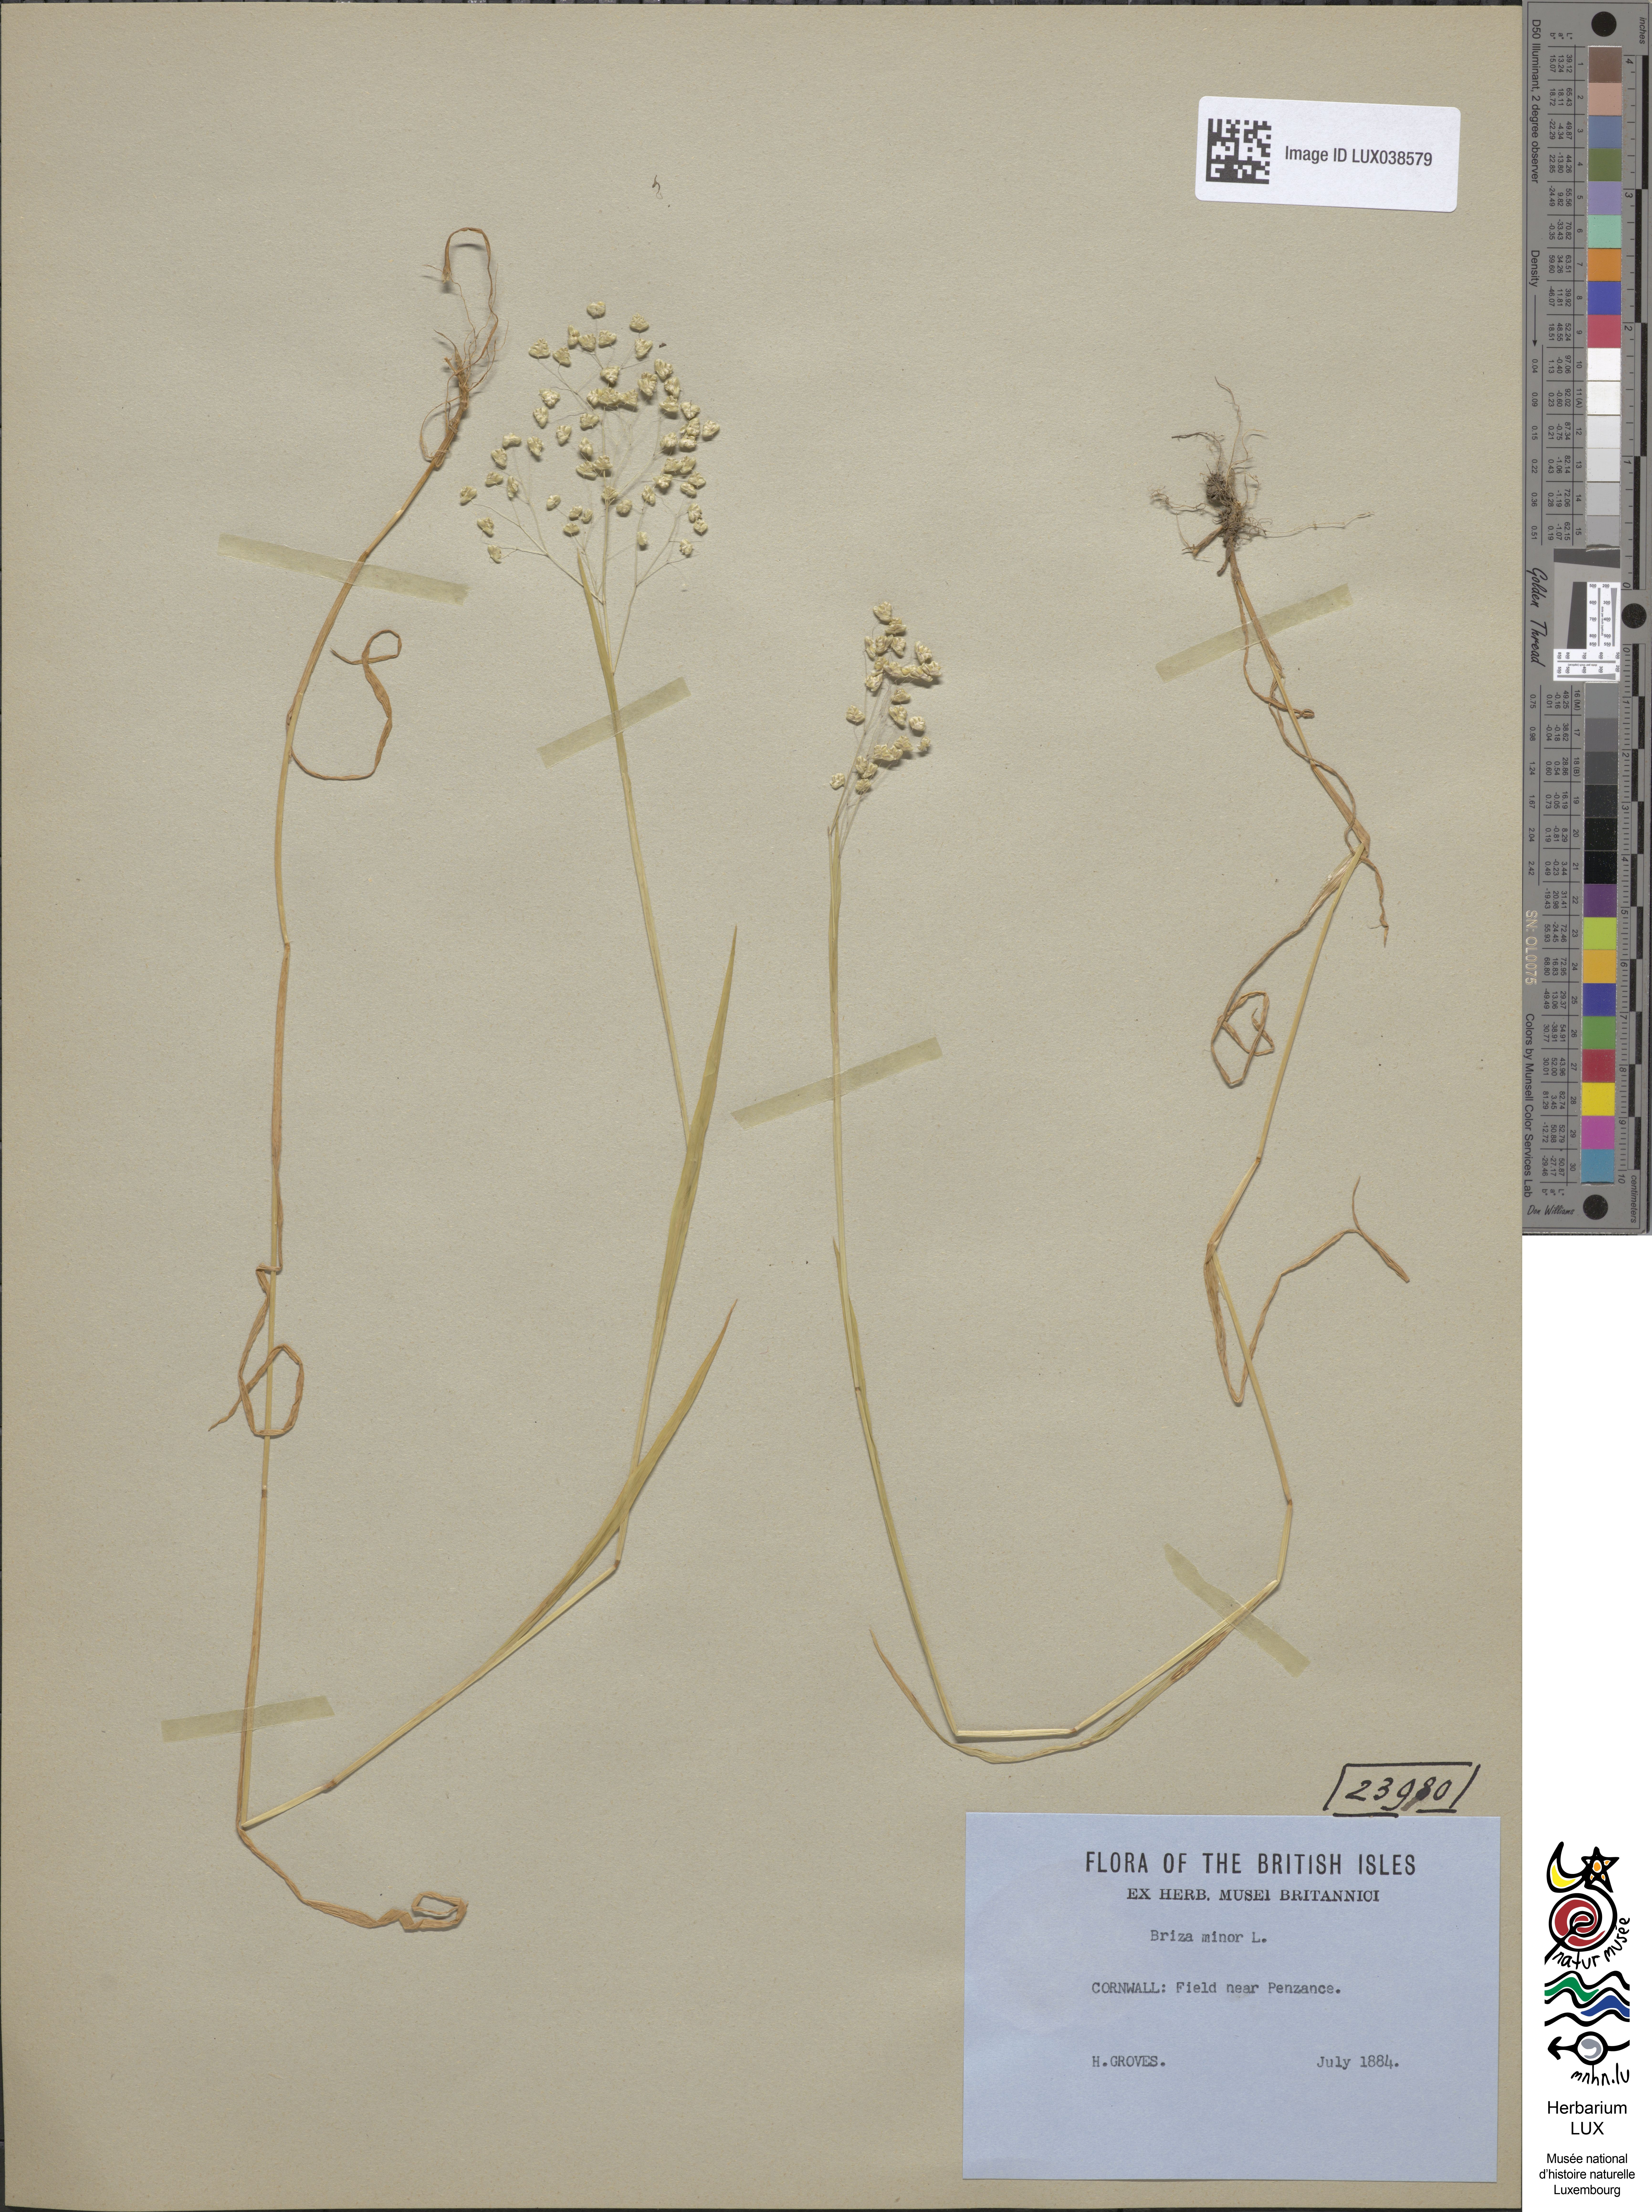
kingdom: Plantae
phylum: Tracheophyta
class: Liliopsida
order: Poales
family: Poaceae
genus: Briza
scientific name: Briza minor
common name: Lesser quaking-grass
